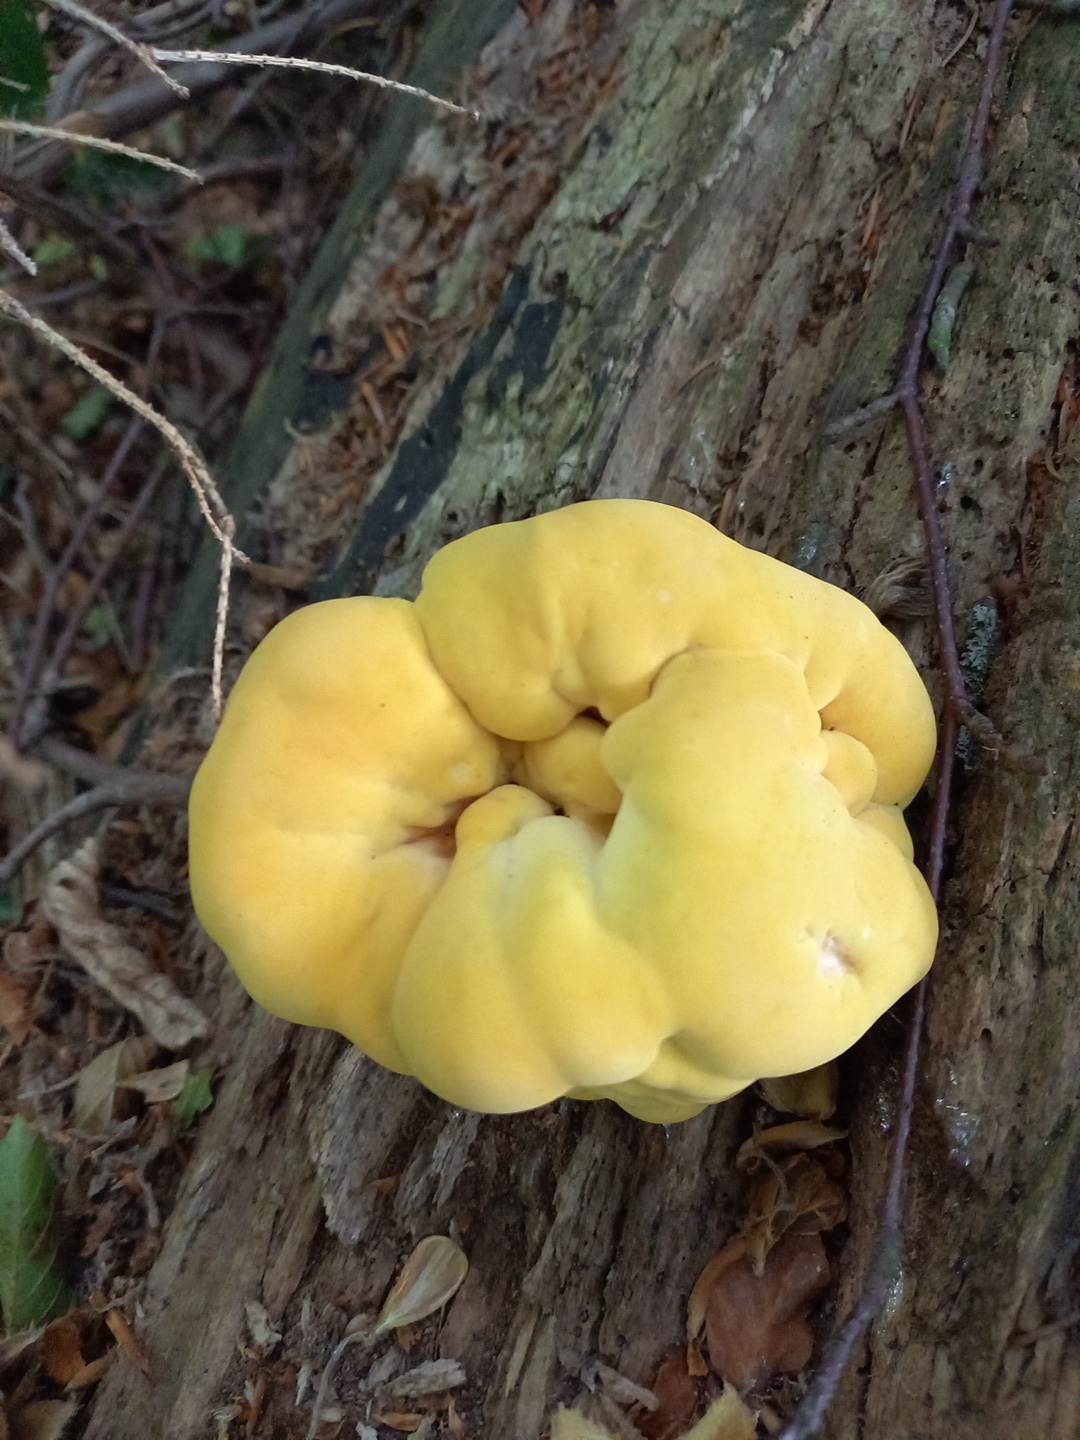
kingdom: Fungi
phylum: Basidiomycota
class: Agaricomycetes
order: Polyporales
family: Laetiporaceae
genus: Laetiporus
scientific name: Laetiporus sulphureus
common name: svovlporesvamp
